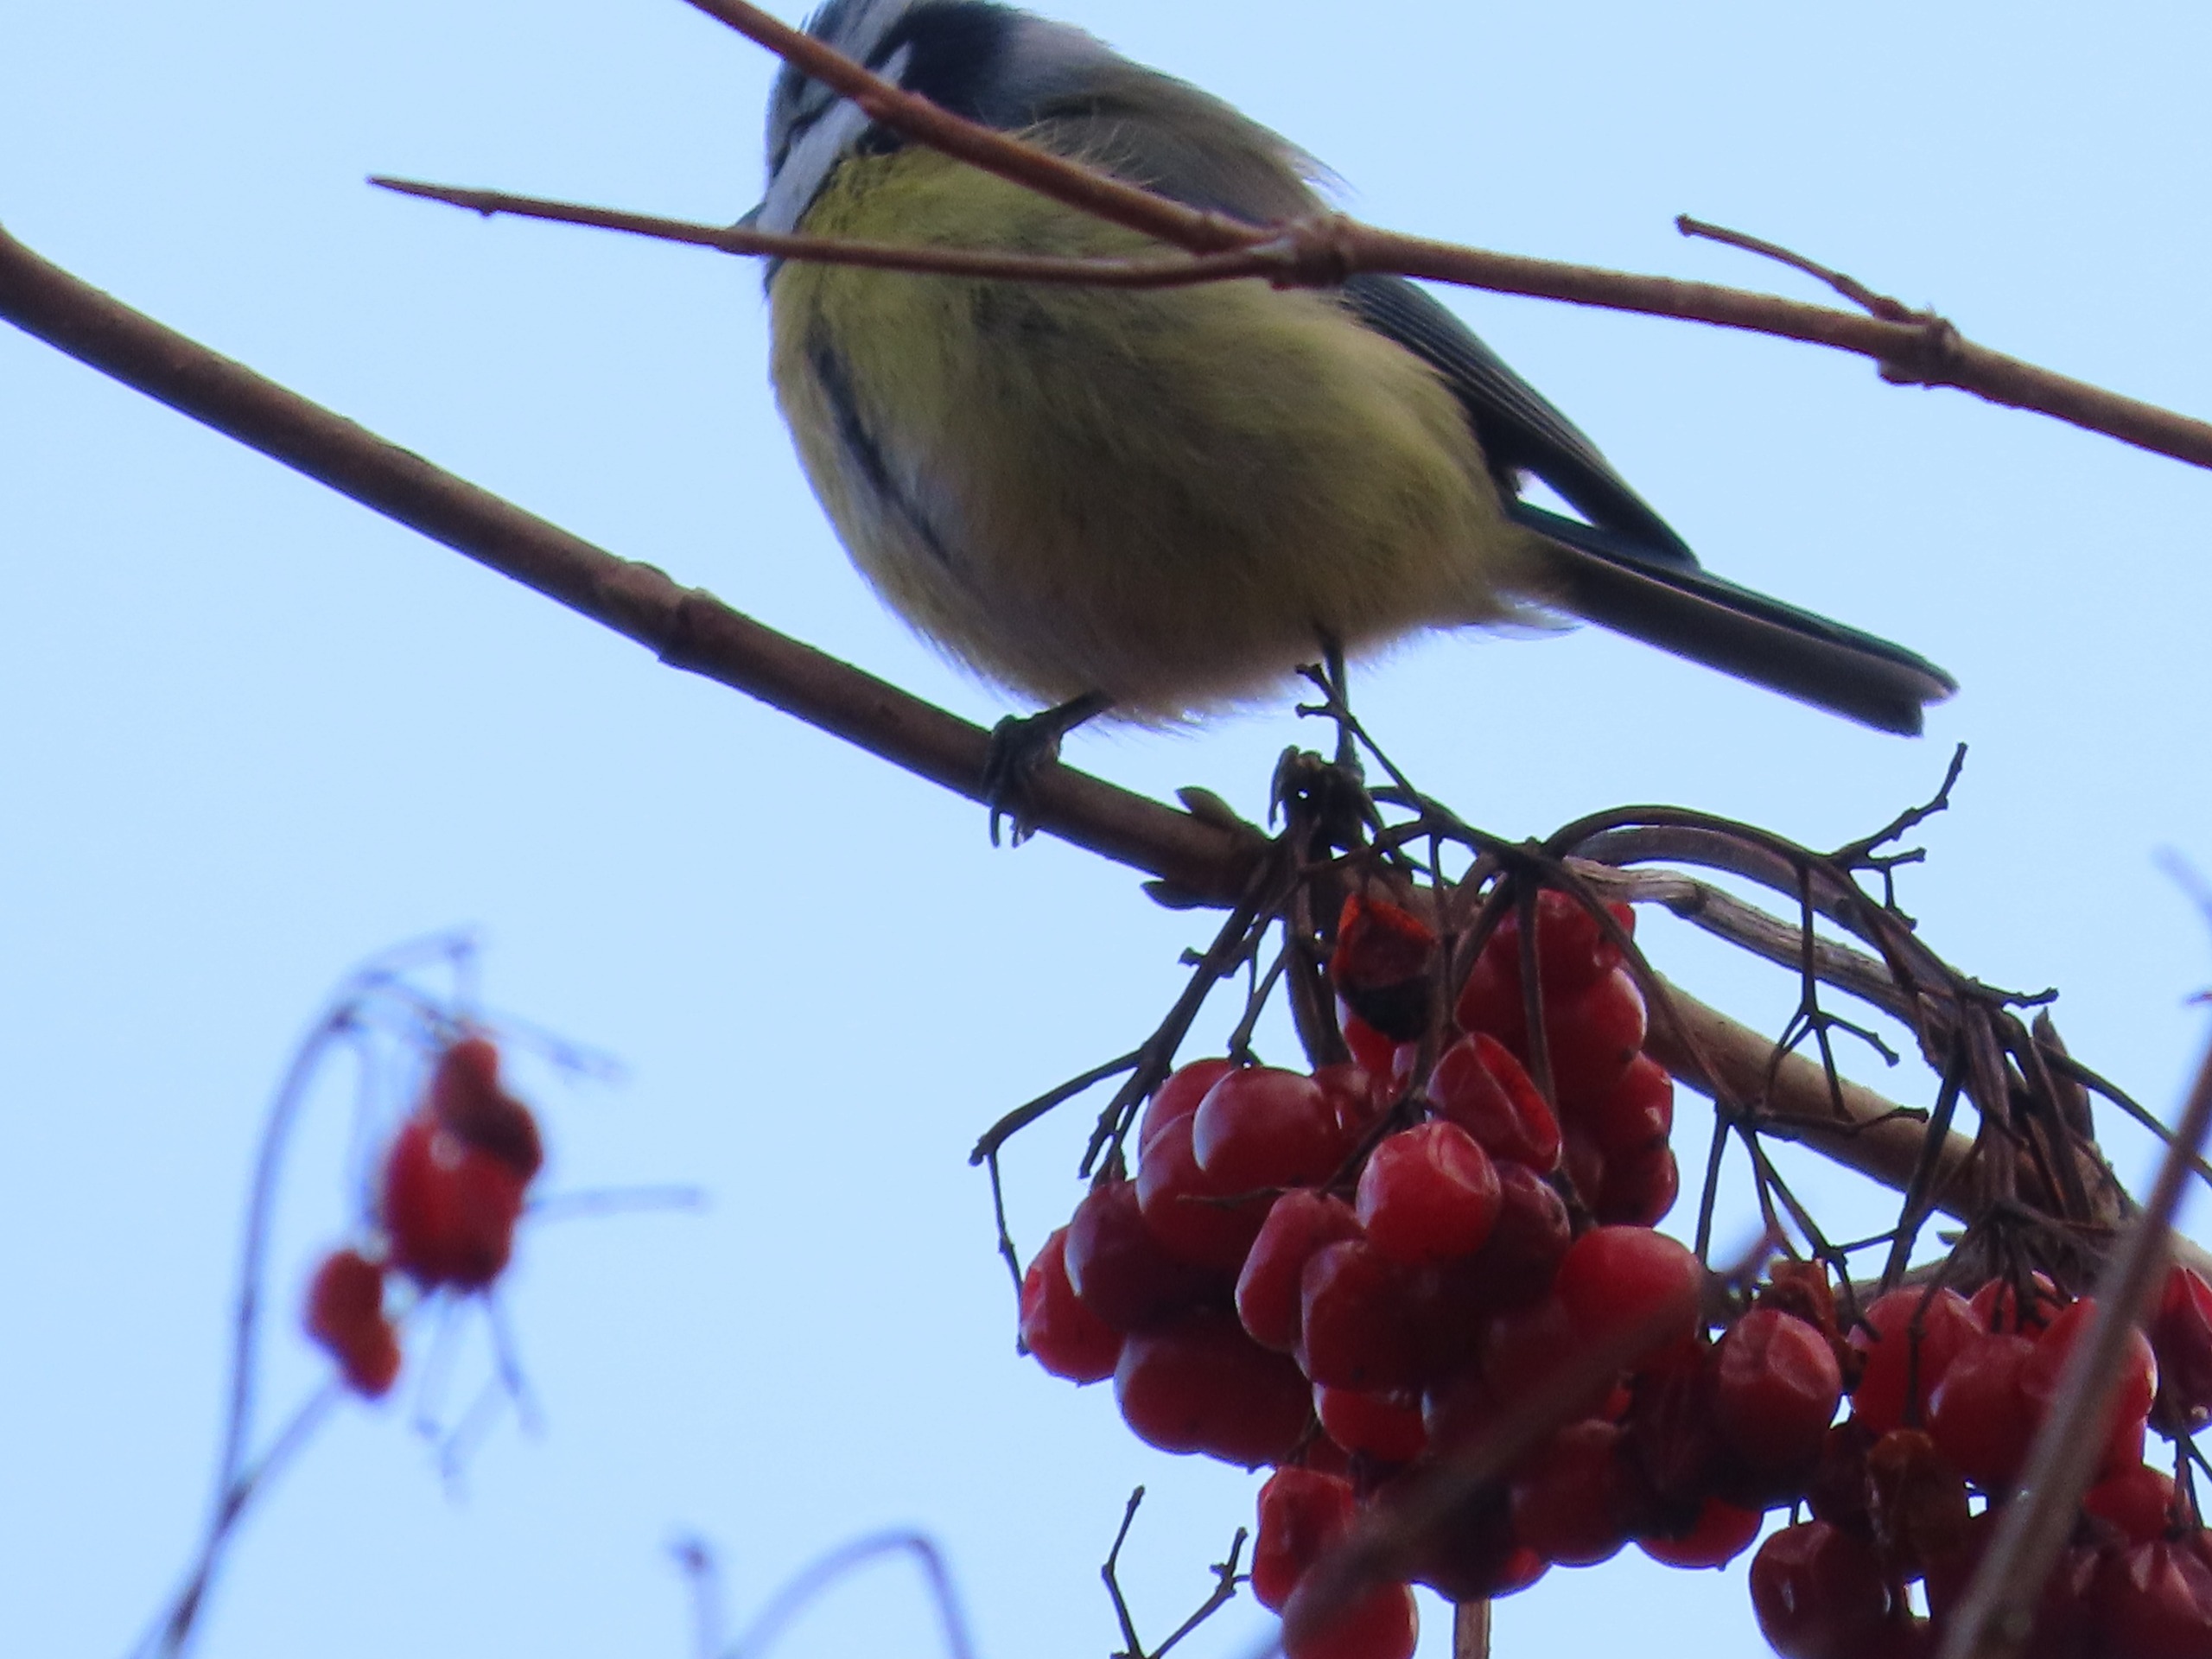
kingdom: Animalia
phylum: Chordata
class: Aves
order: Passeriformes
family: Paridae
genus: Cyanistes
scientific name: Cyanistes caeruleus
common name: Blåmejse
